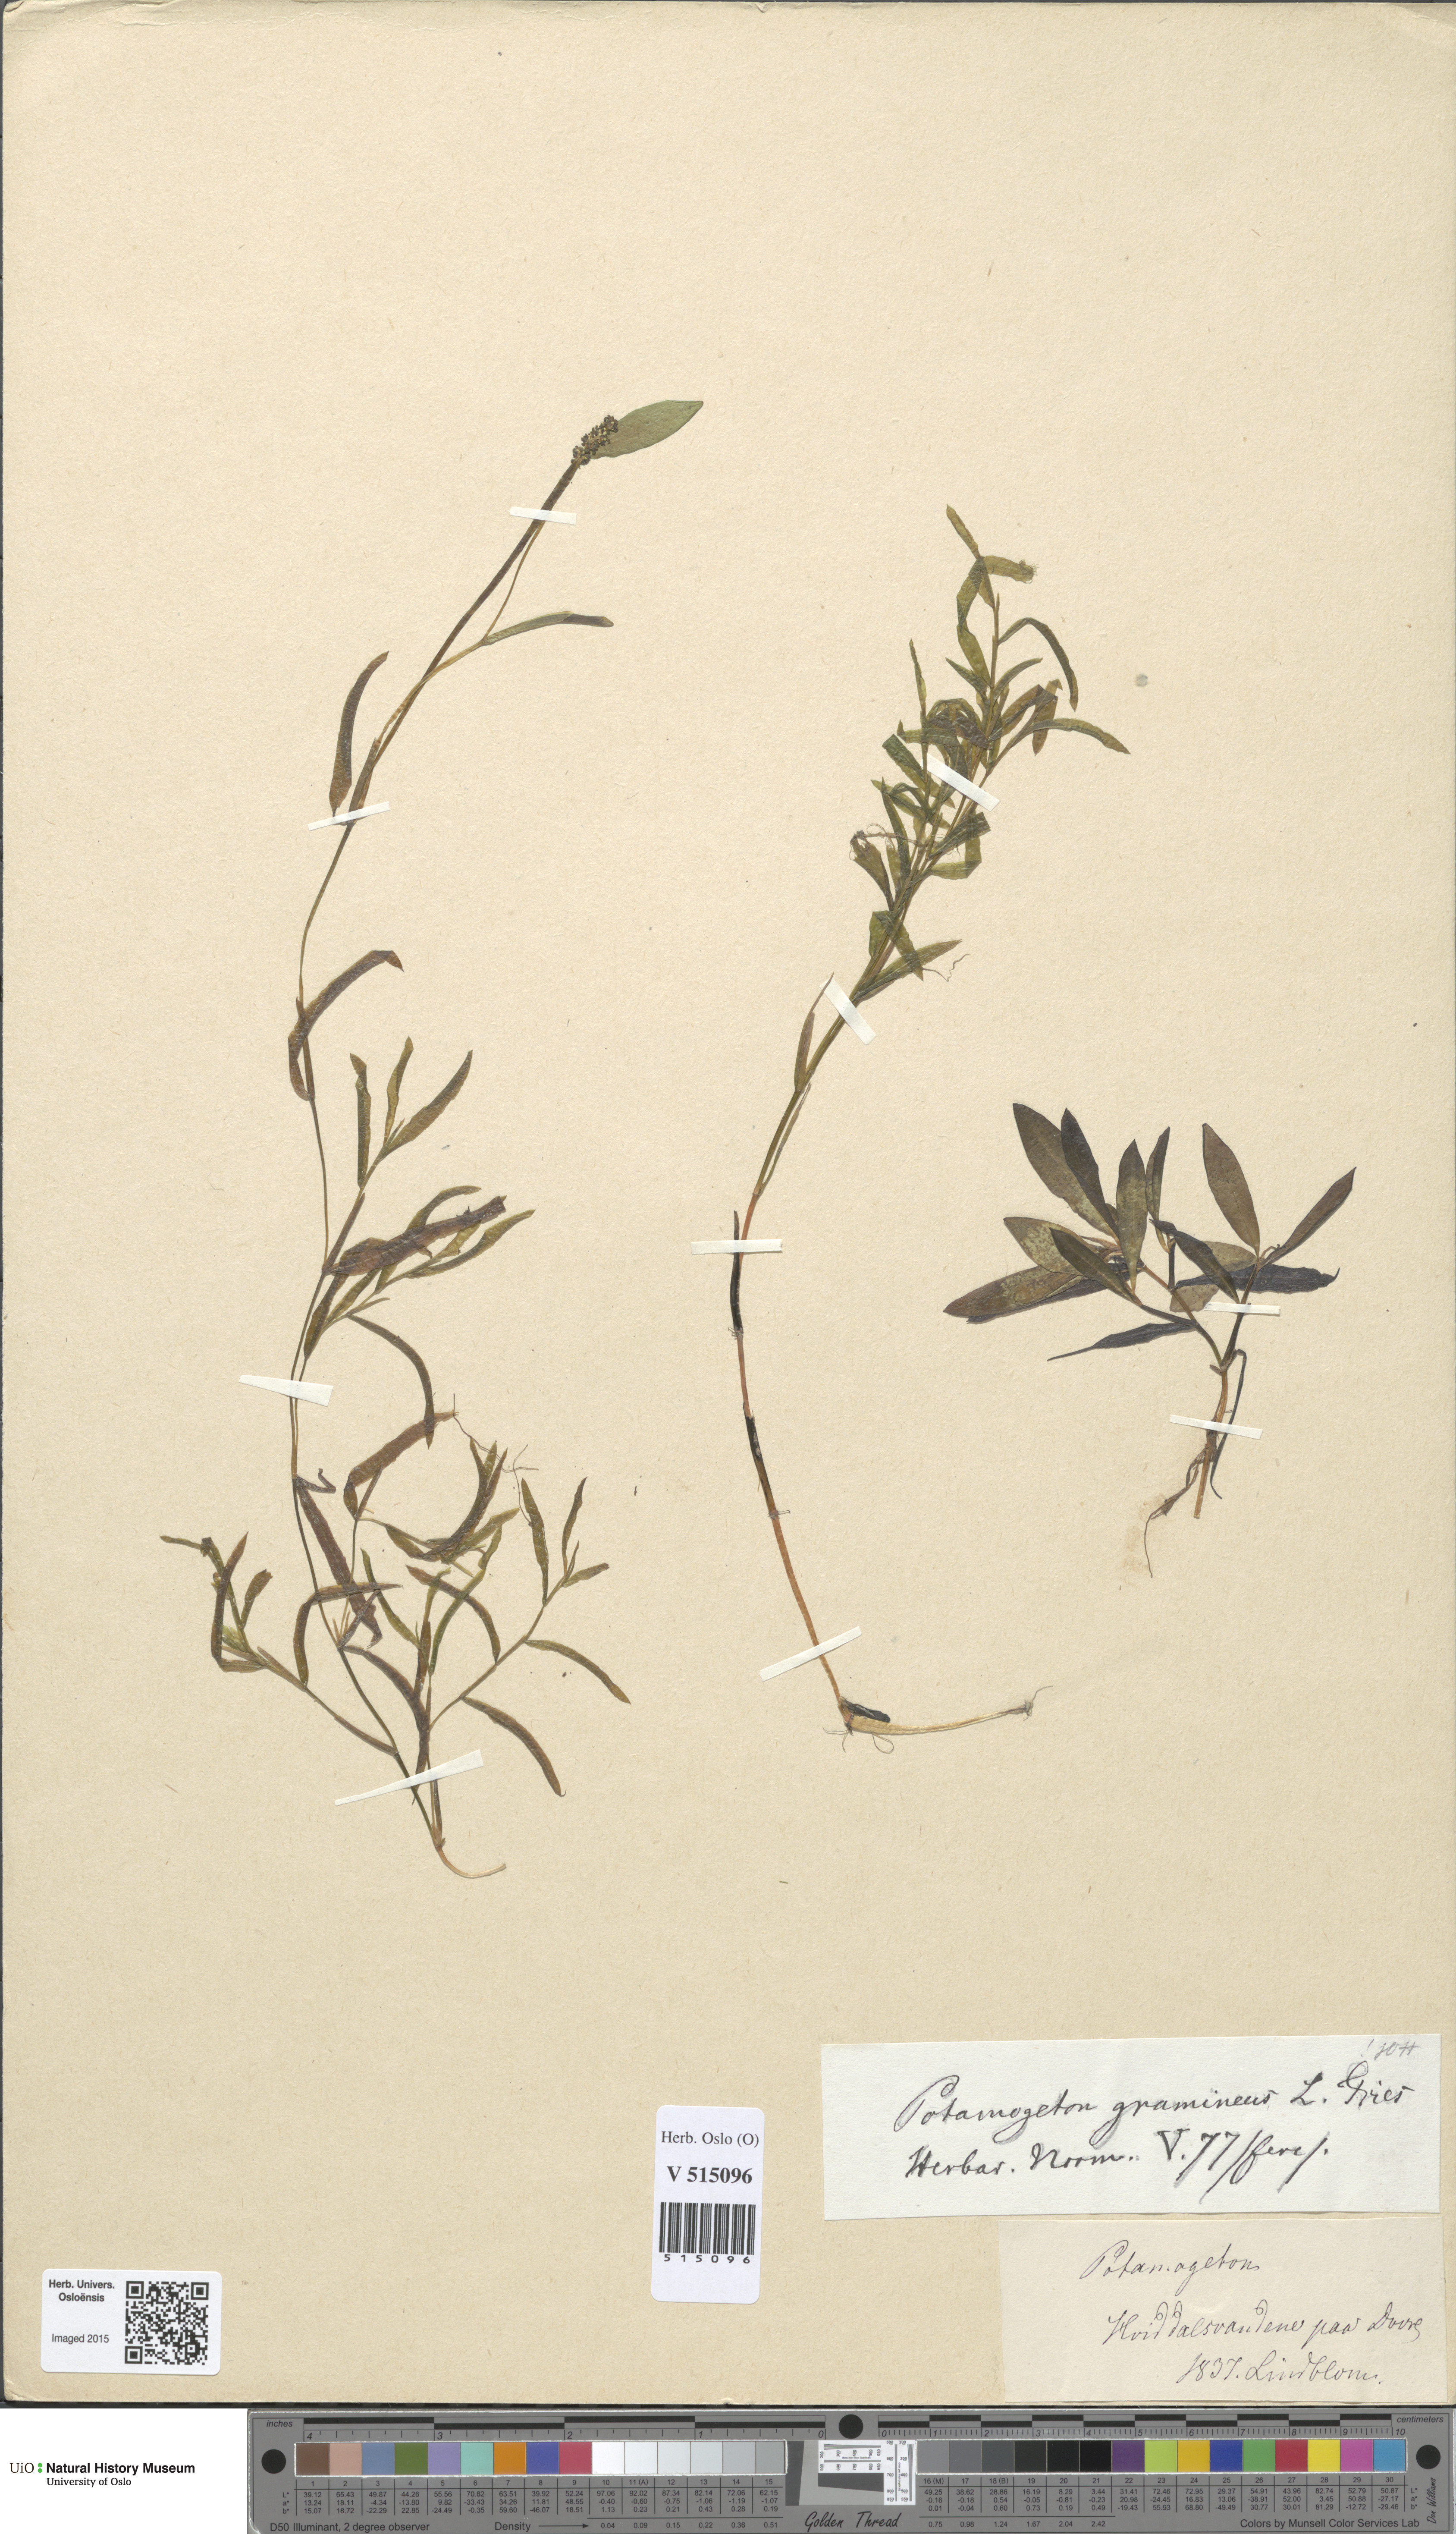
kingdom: Plantae
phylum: Tracheophyta
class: Liliopsida
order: Alismatales
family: Potamogetonaceae
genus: Potamogeton
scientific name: Potamogeton gramineus
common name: Various-leaved pondweed
